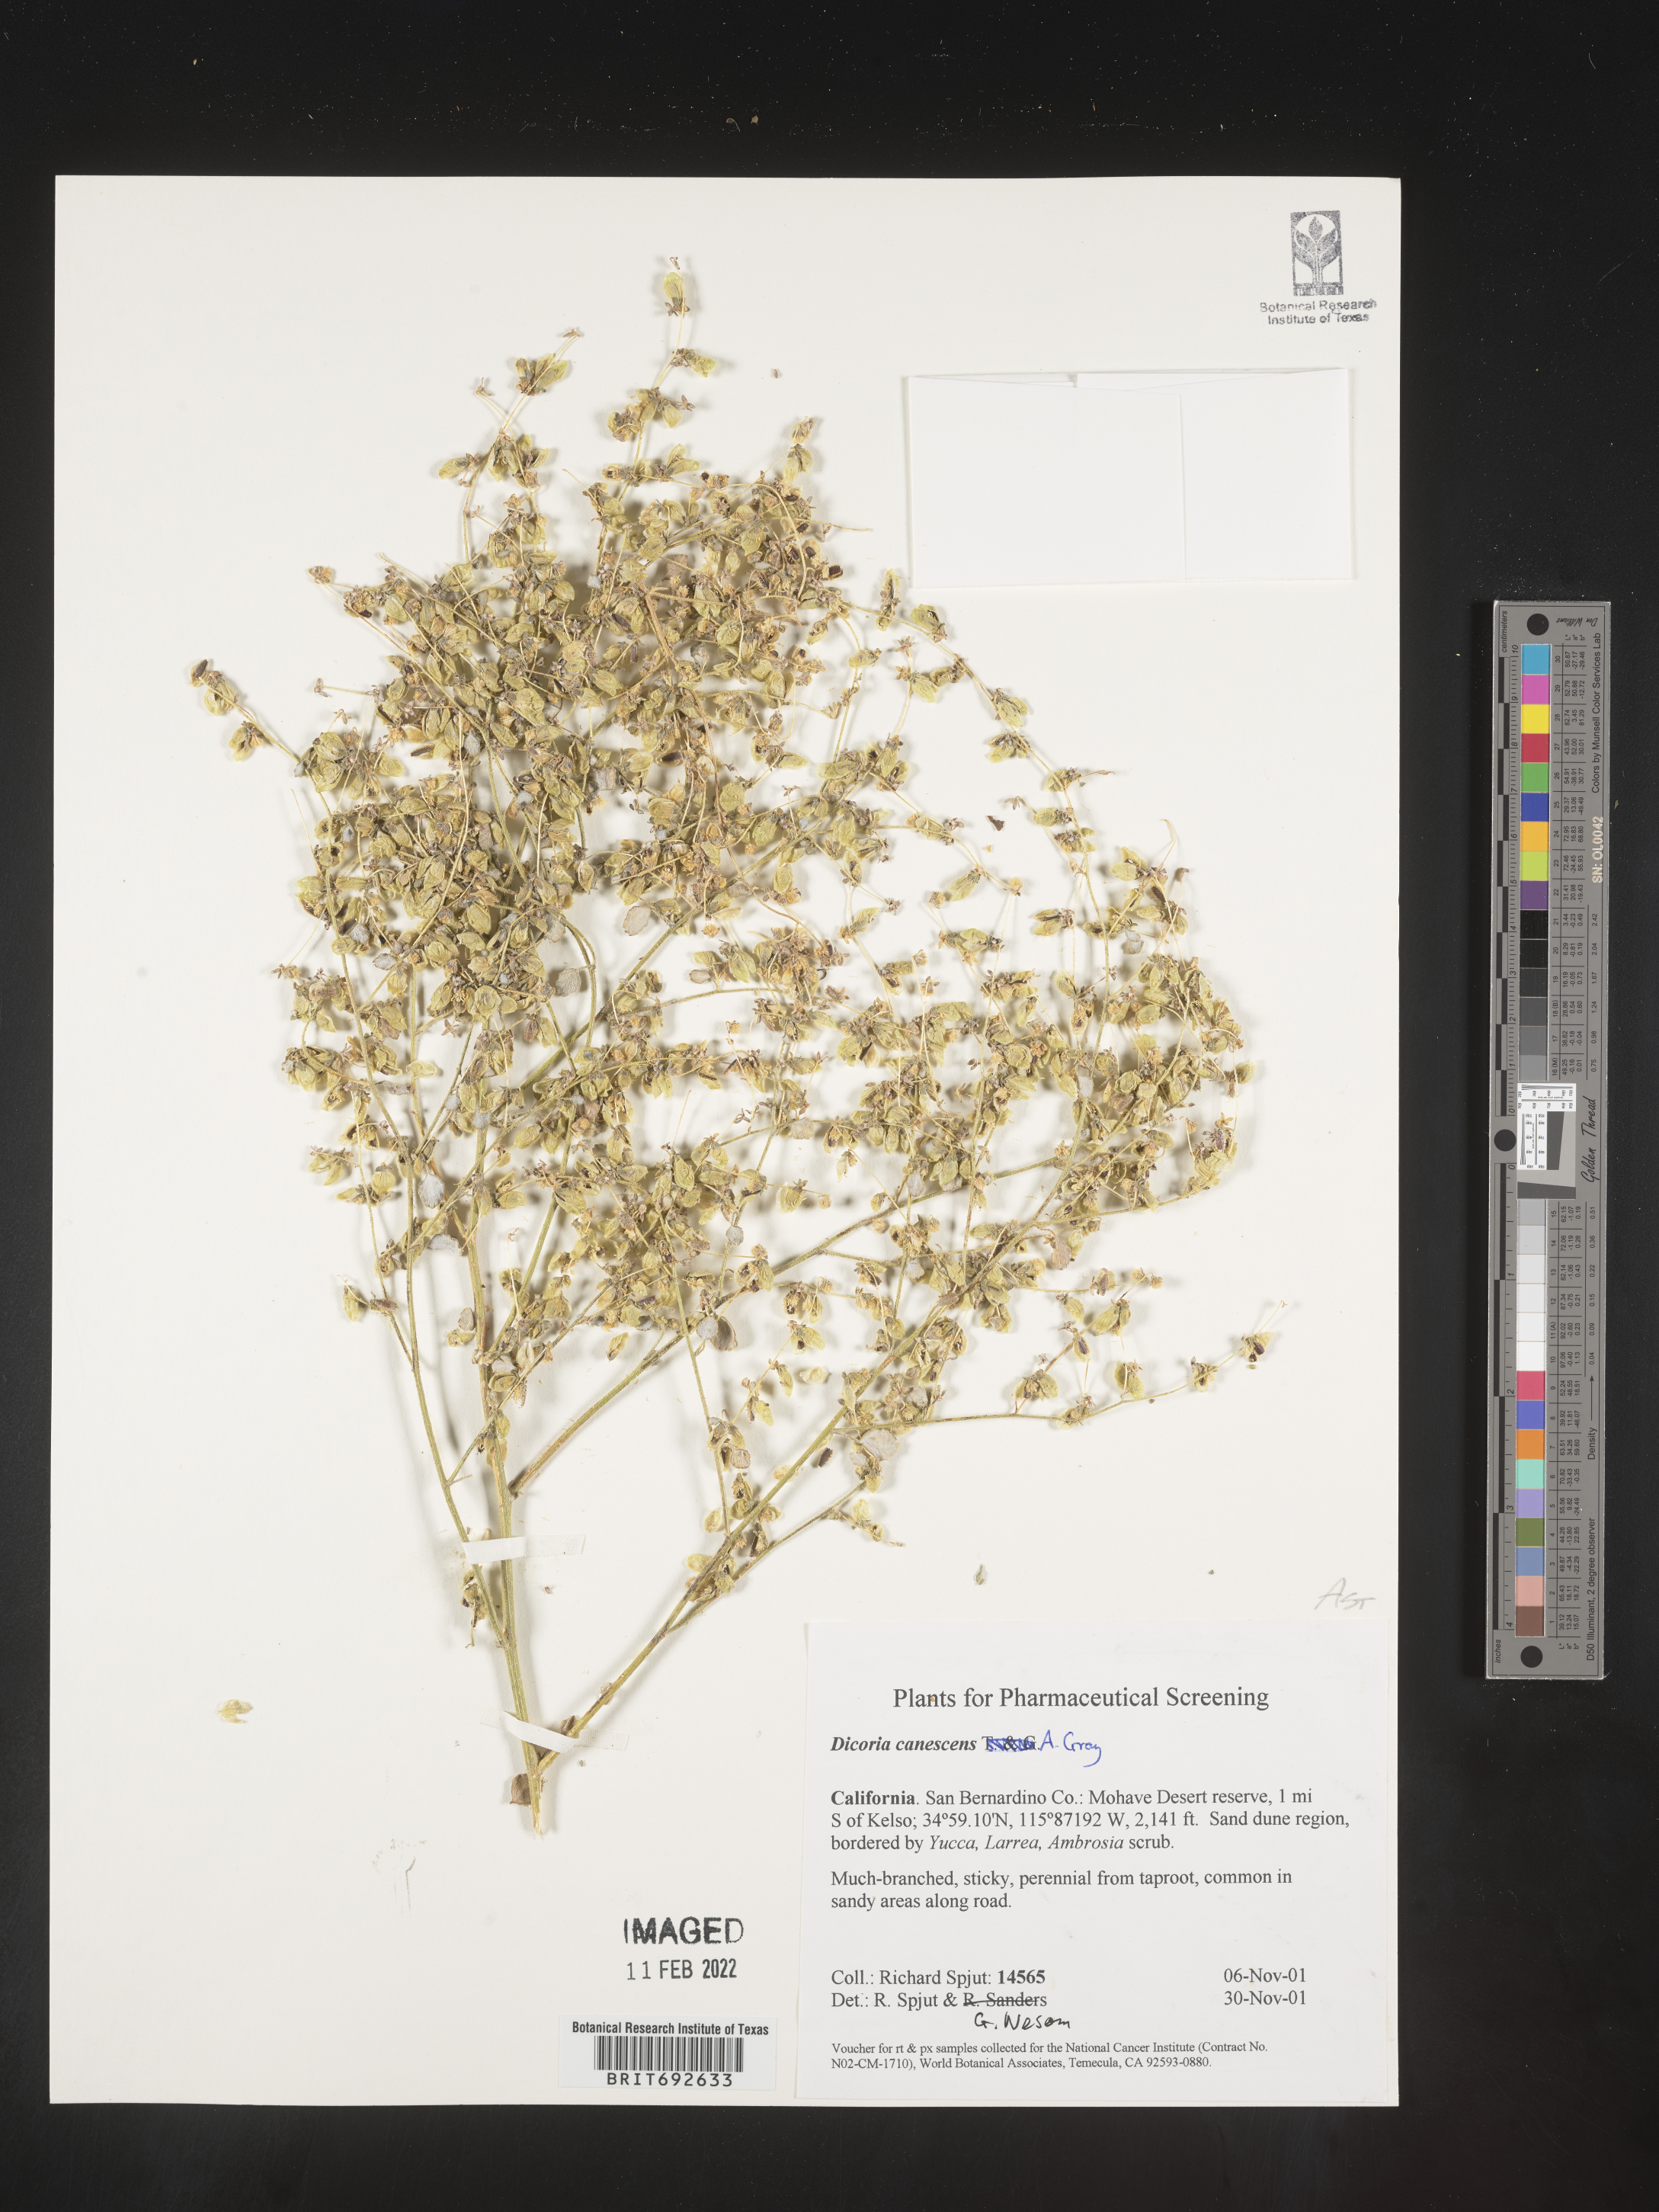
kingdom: Plantae
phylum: Tracheophyta
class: Magnoliopsida
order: Asterales
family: Asteraceae
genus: Dicoria
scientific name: Dicoria
